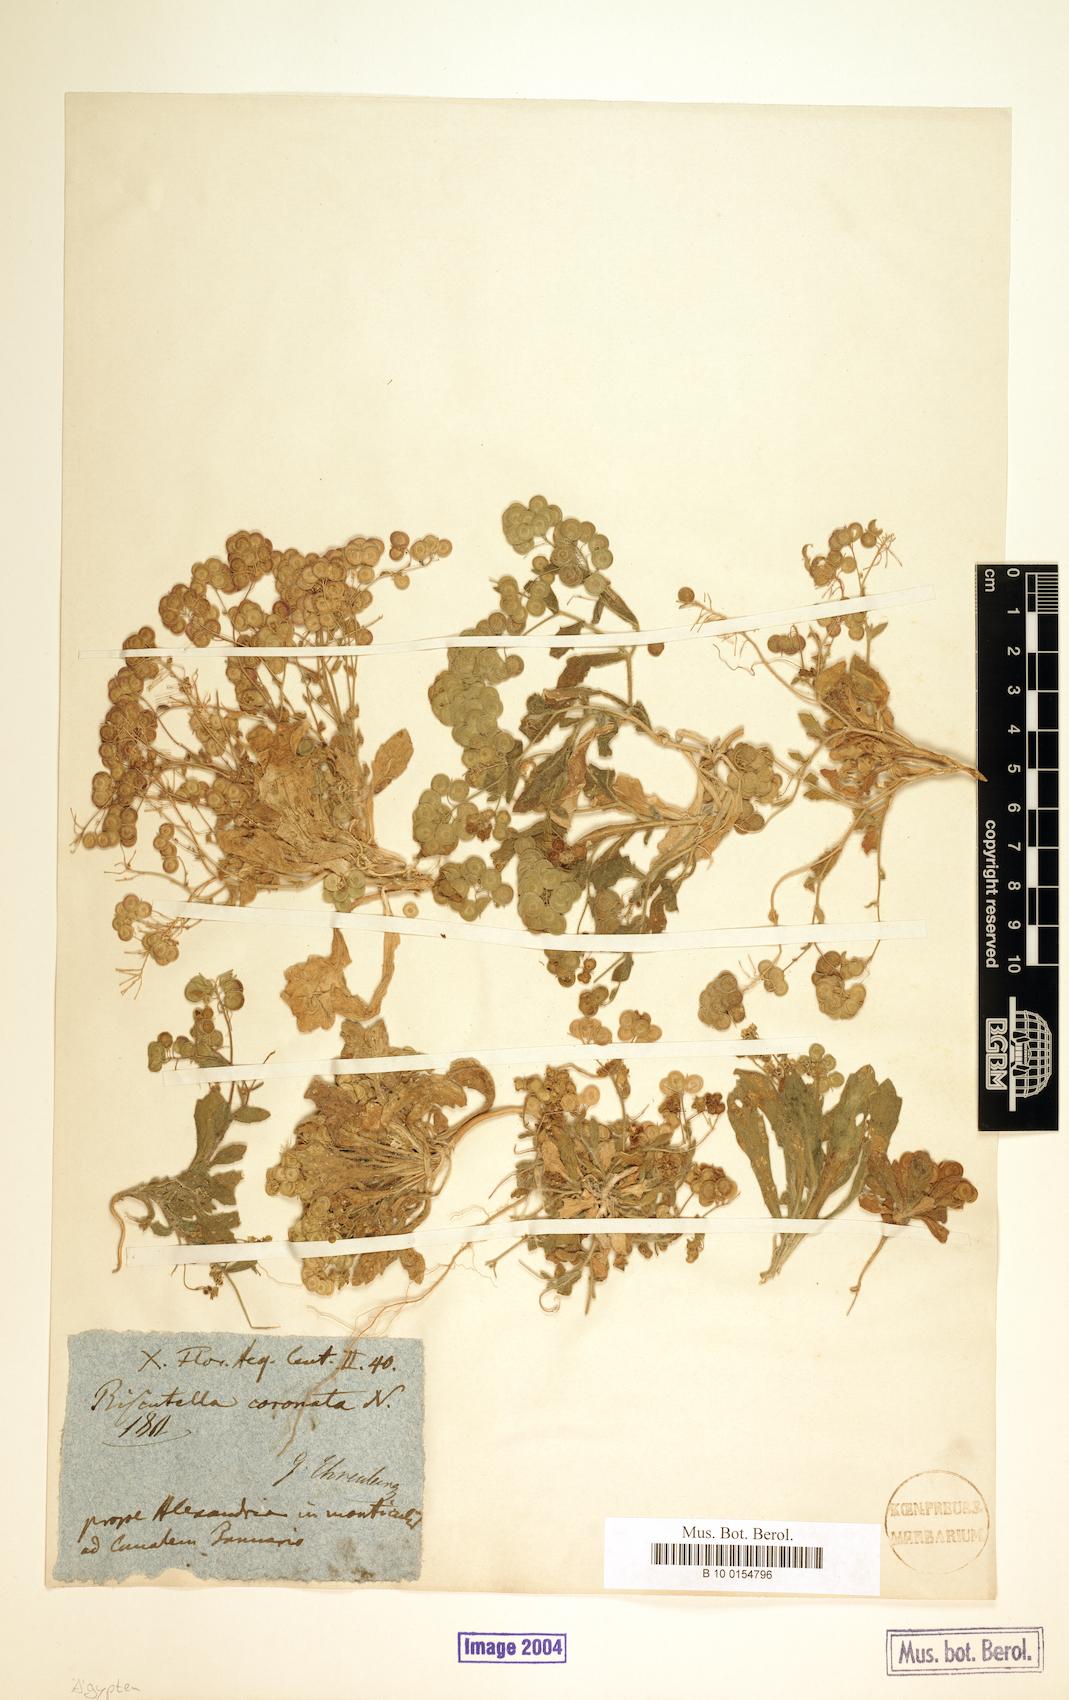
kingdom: Plantae
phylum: Tracheophyta
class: Magnoliopsida
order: Brassicales
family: Brassicaceae
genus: Biscutella
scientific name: Biscutella coronaria
